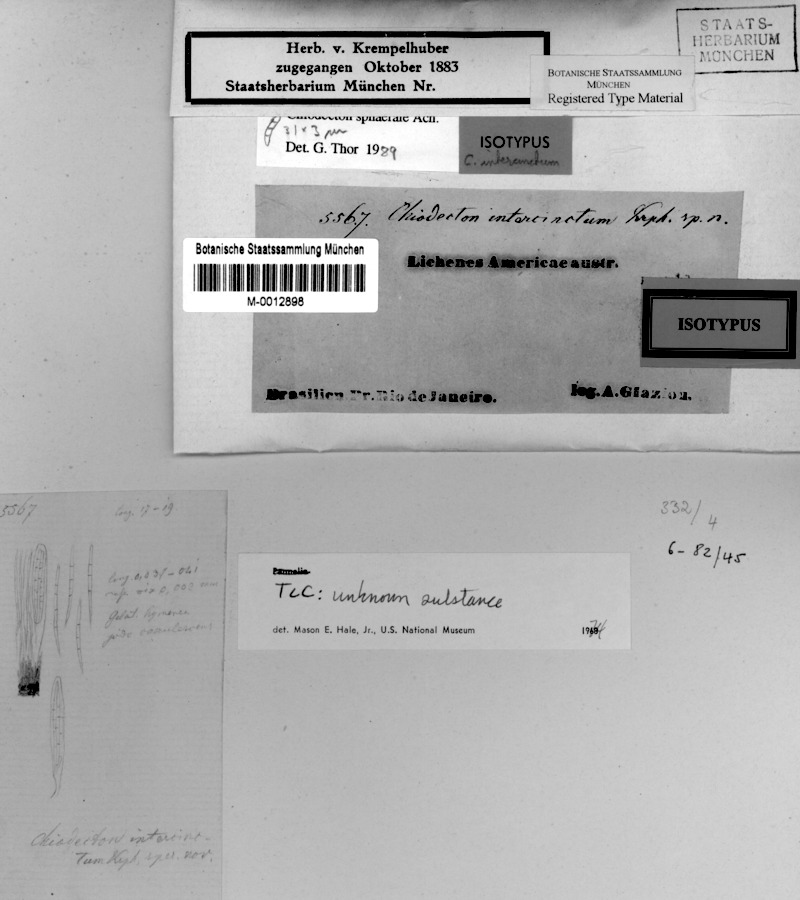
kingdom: Fungi
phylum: Ascomycota
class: Arthoniomycetes
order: Arthoniales
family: Roccellaceae
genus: Chiodecton
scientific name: Chiodecton sphaerale
